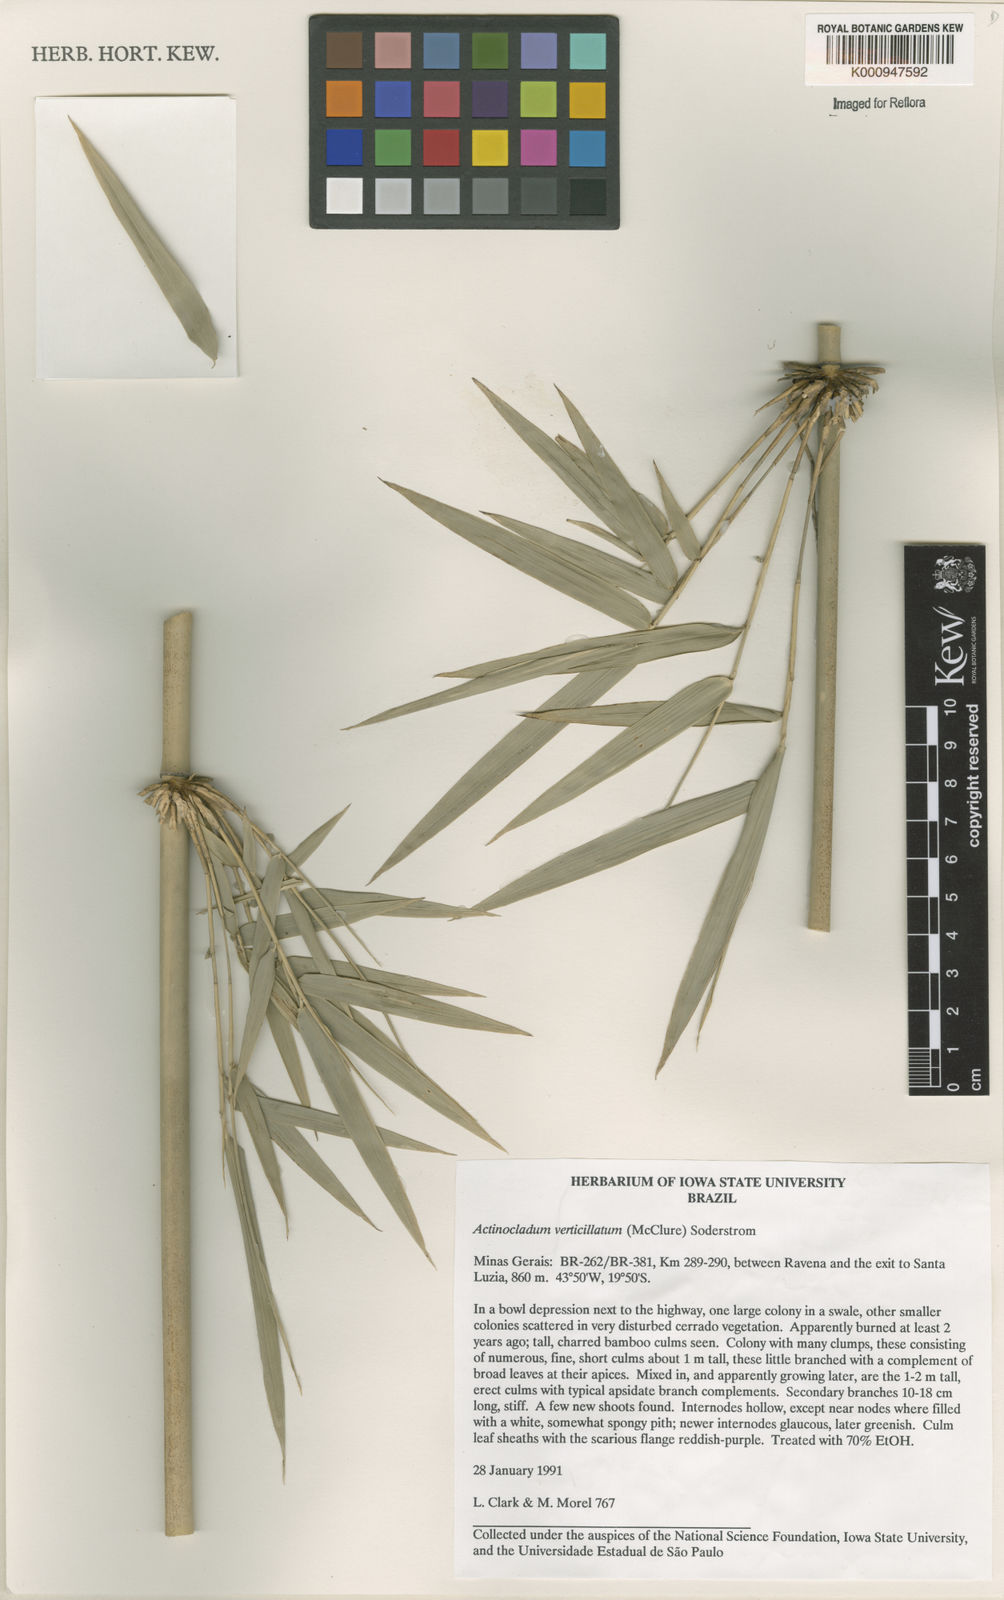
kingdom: Plantae
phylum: Tracheophyta
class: Liliopsida
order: Poales
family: Poaceae
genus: Actinocladum
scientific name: Actinocladum verticillatum
